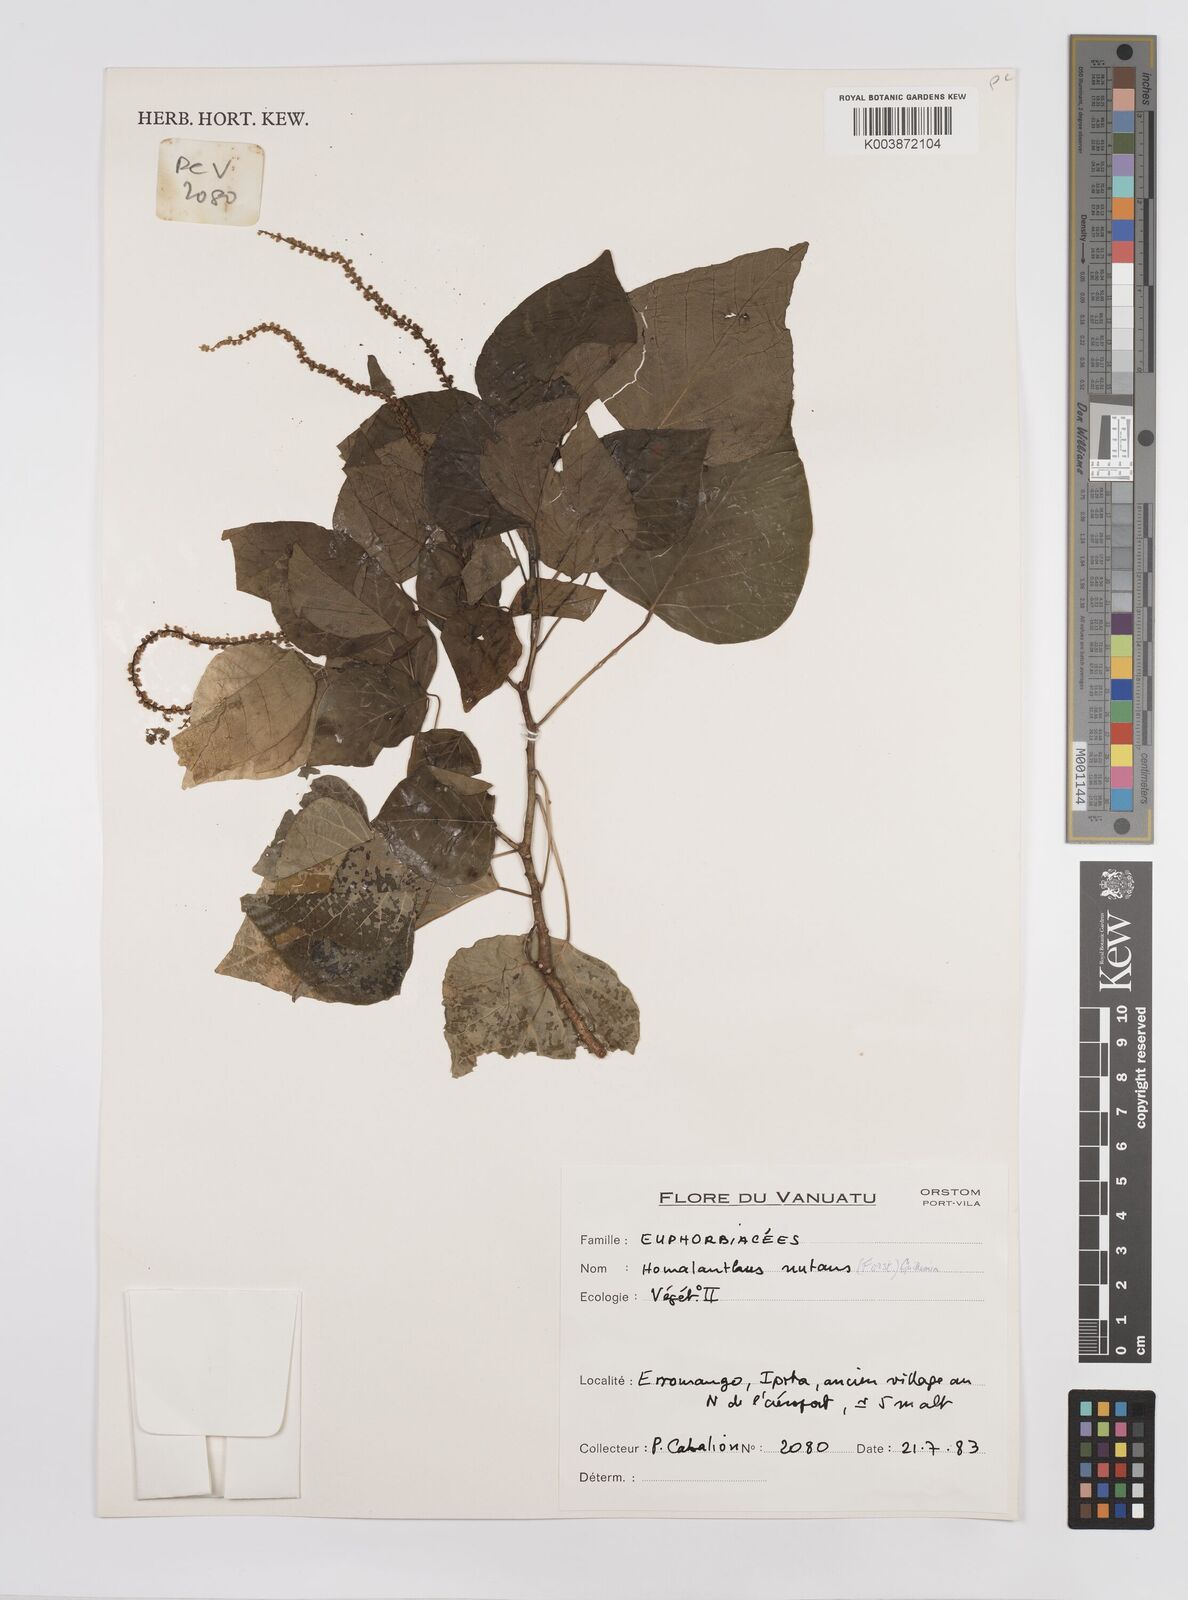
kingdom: Plantae
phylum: Tracheophyta
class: Magnoliopsida
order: Malpighiales
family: Euphorbiaceae
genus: Homalanthus
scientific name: Homalanthus nutans
